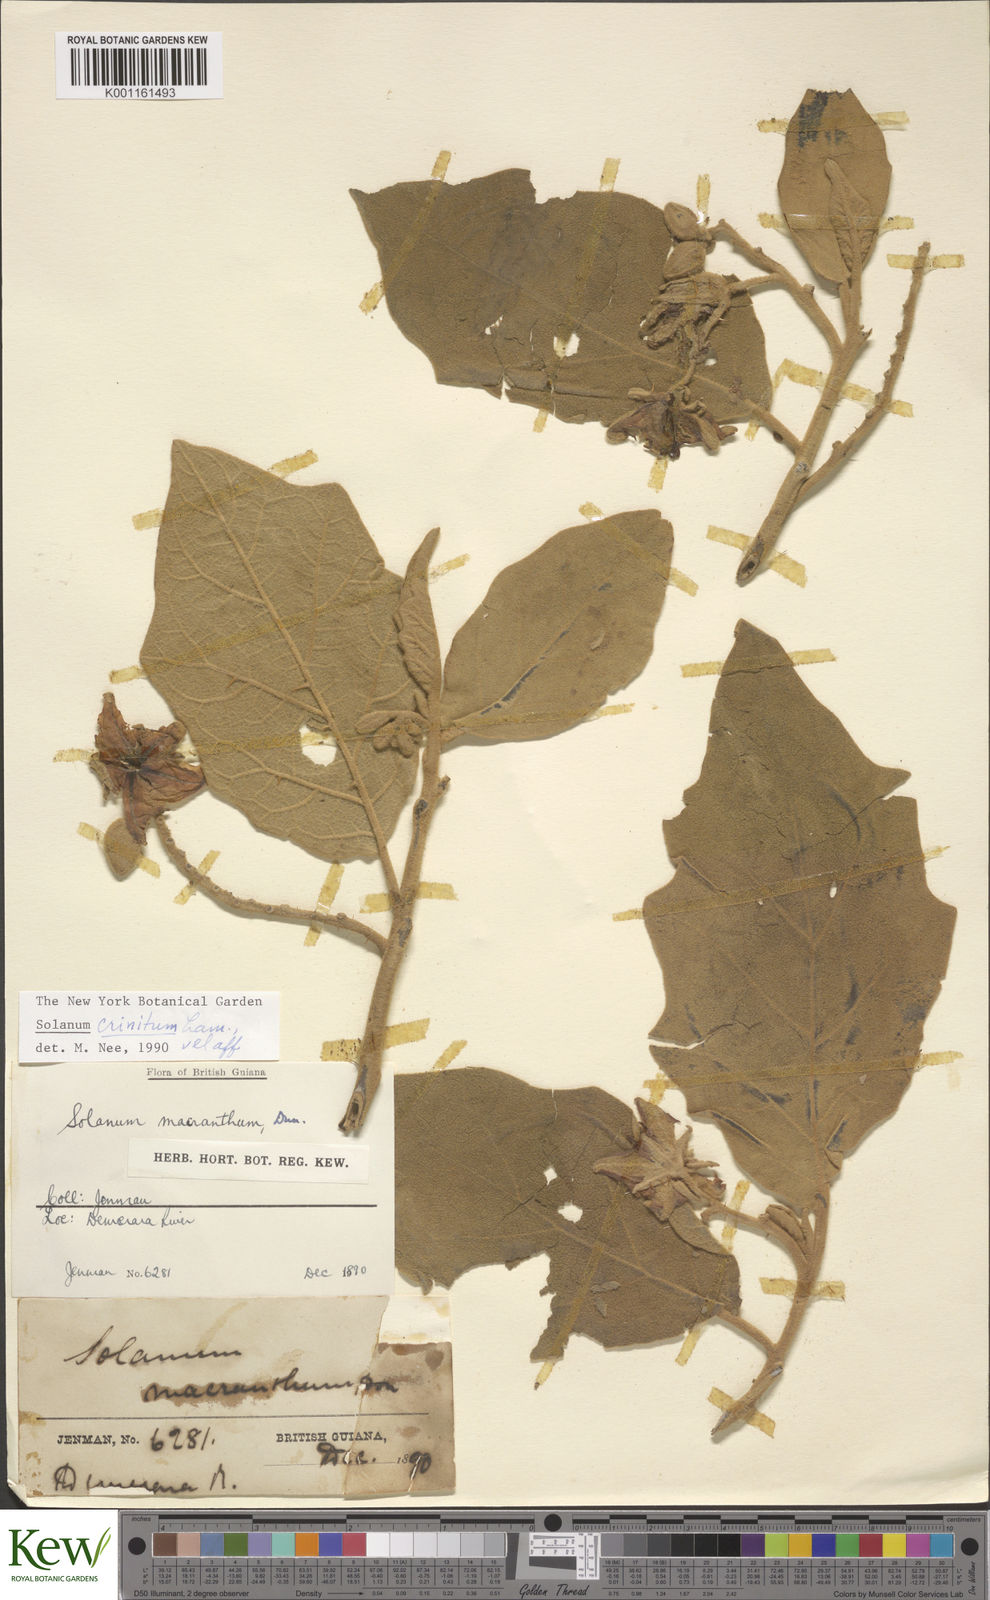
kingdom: Plantae
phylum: Tracheophyta
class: Magnoliopsida
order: Solanales
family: Solanaceae
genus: Solanum
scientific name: Solanum crinitum
